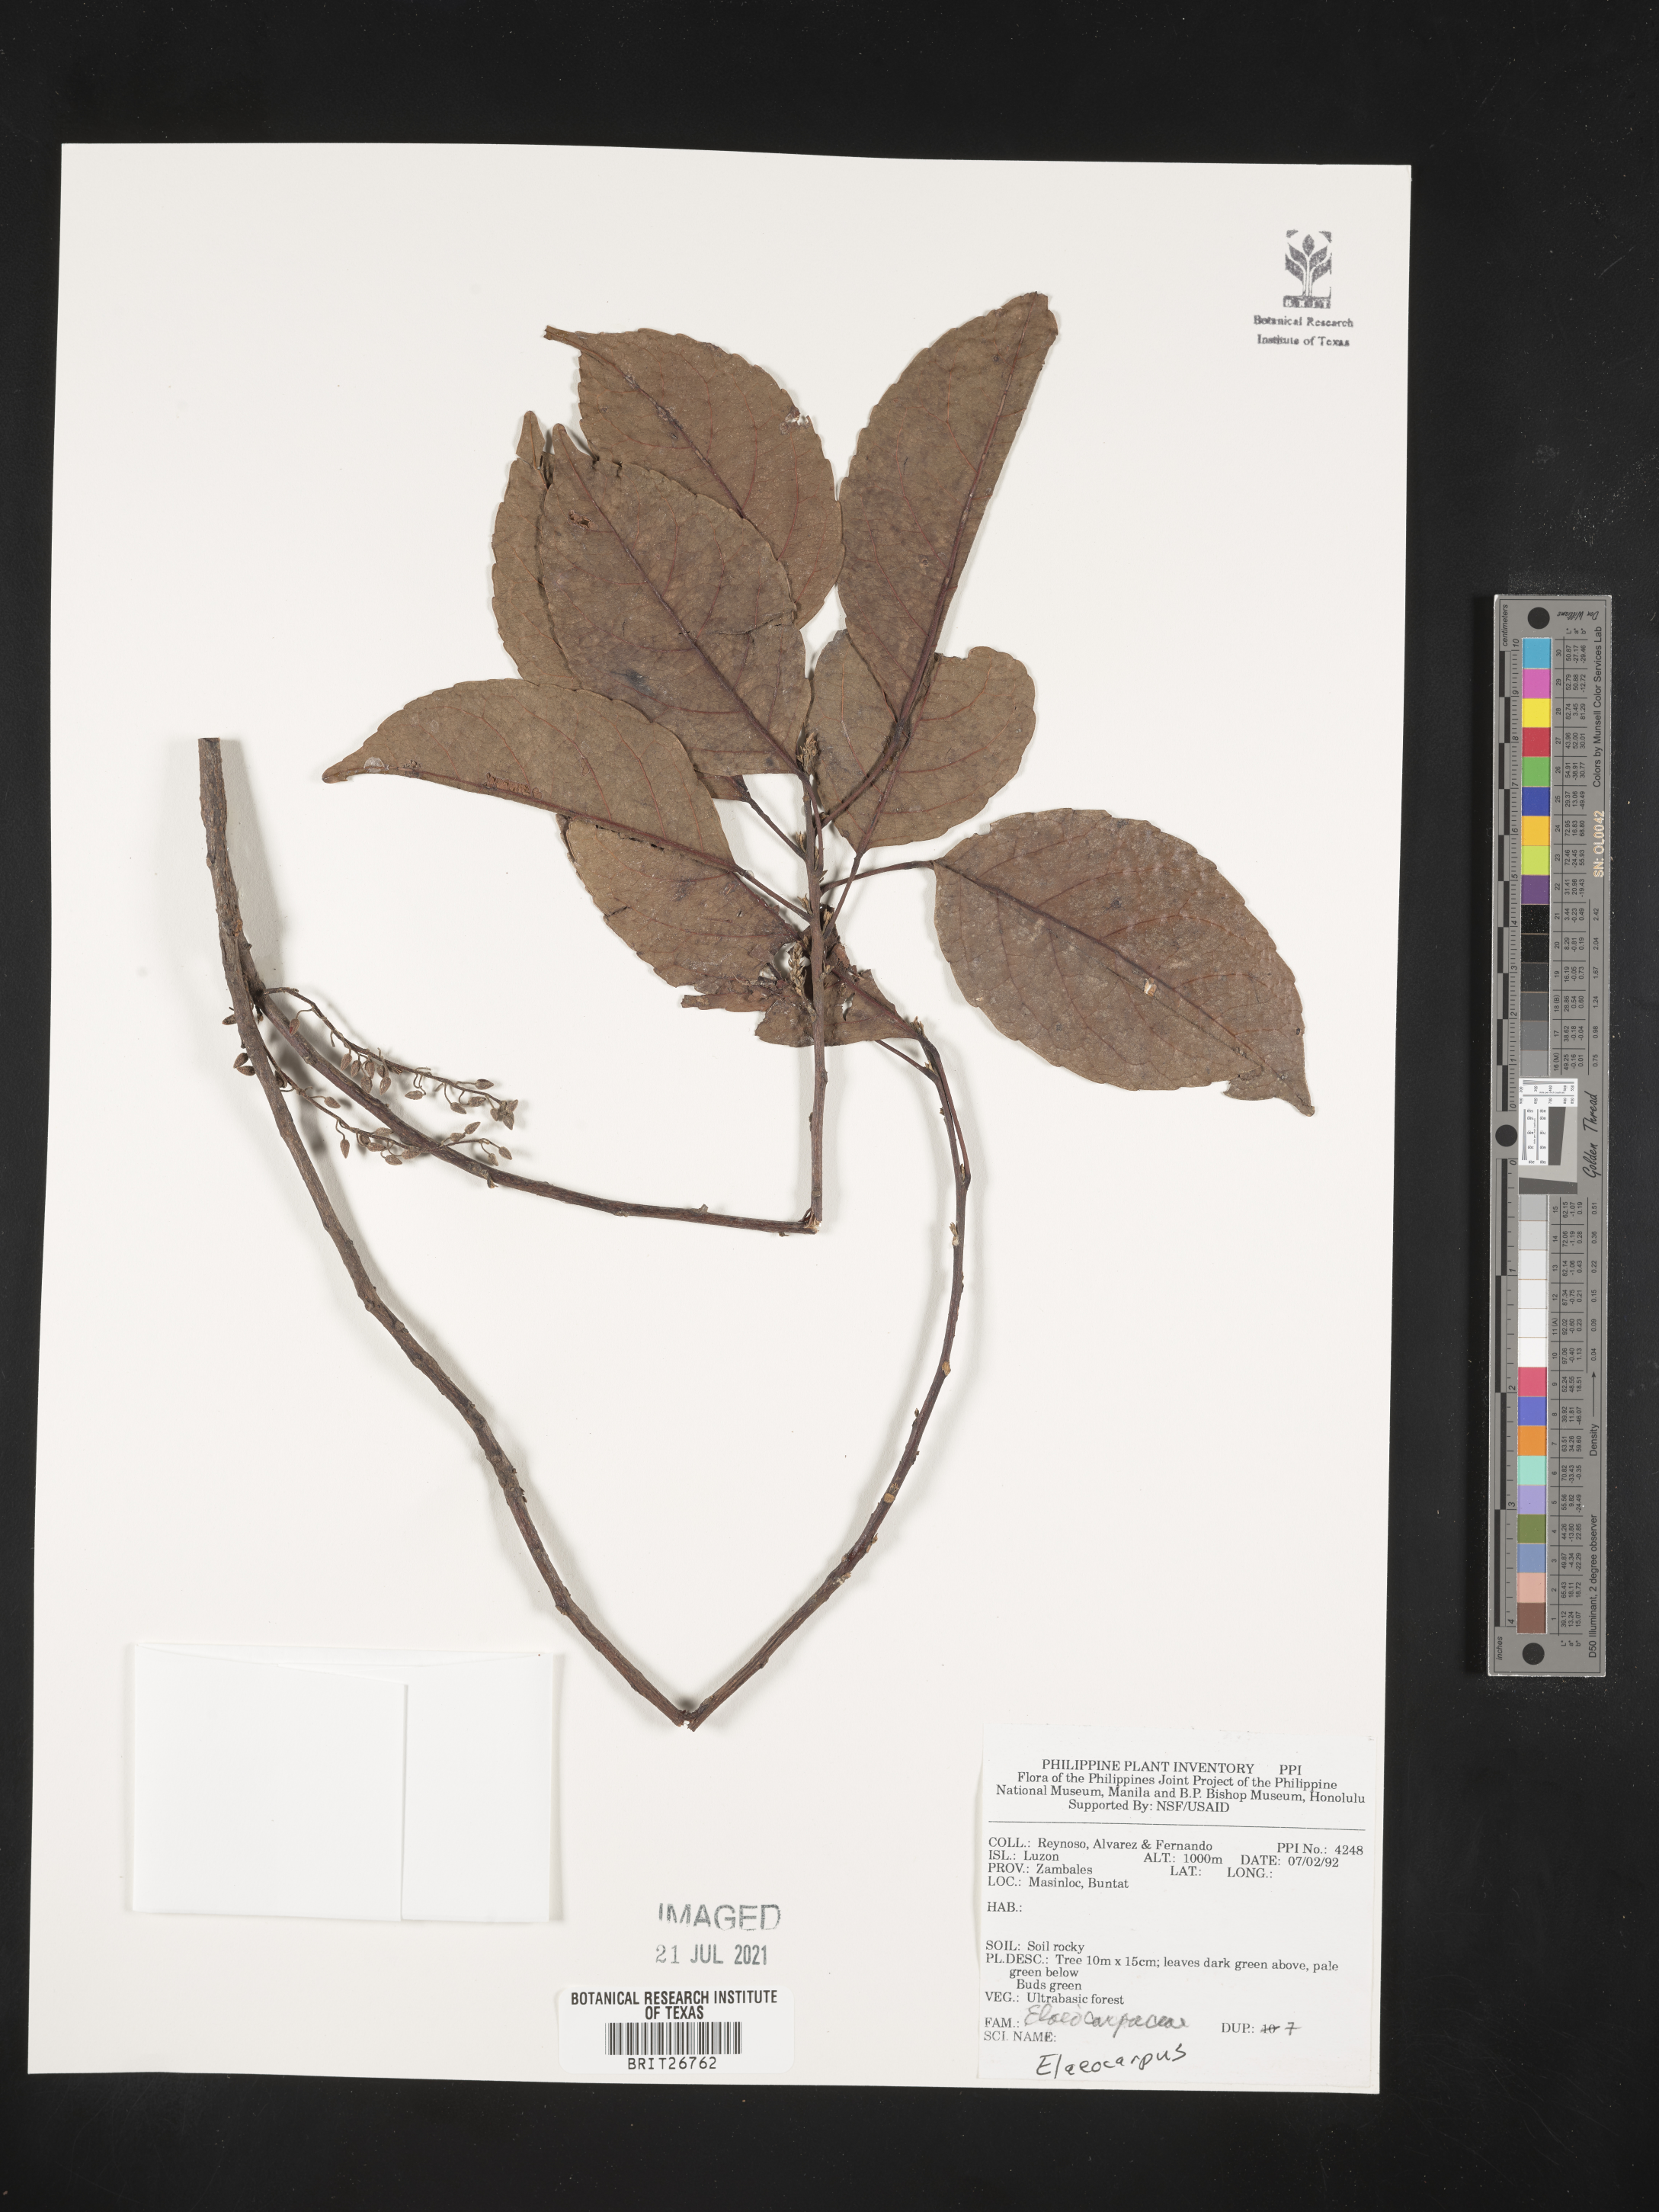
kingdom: Plantae
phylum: Tracheophyta
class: Magnoliopsida
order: Oxalidales
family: Elaeocarpaceae
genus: Elaeocarpus
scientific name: Elaeocarpus
